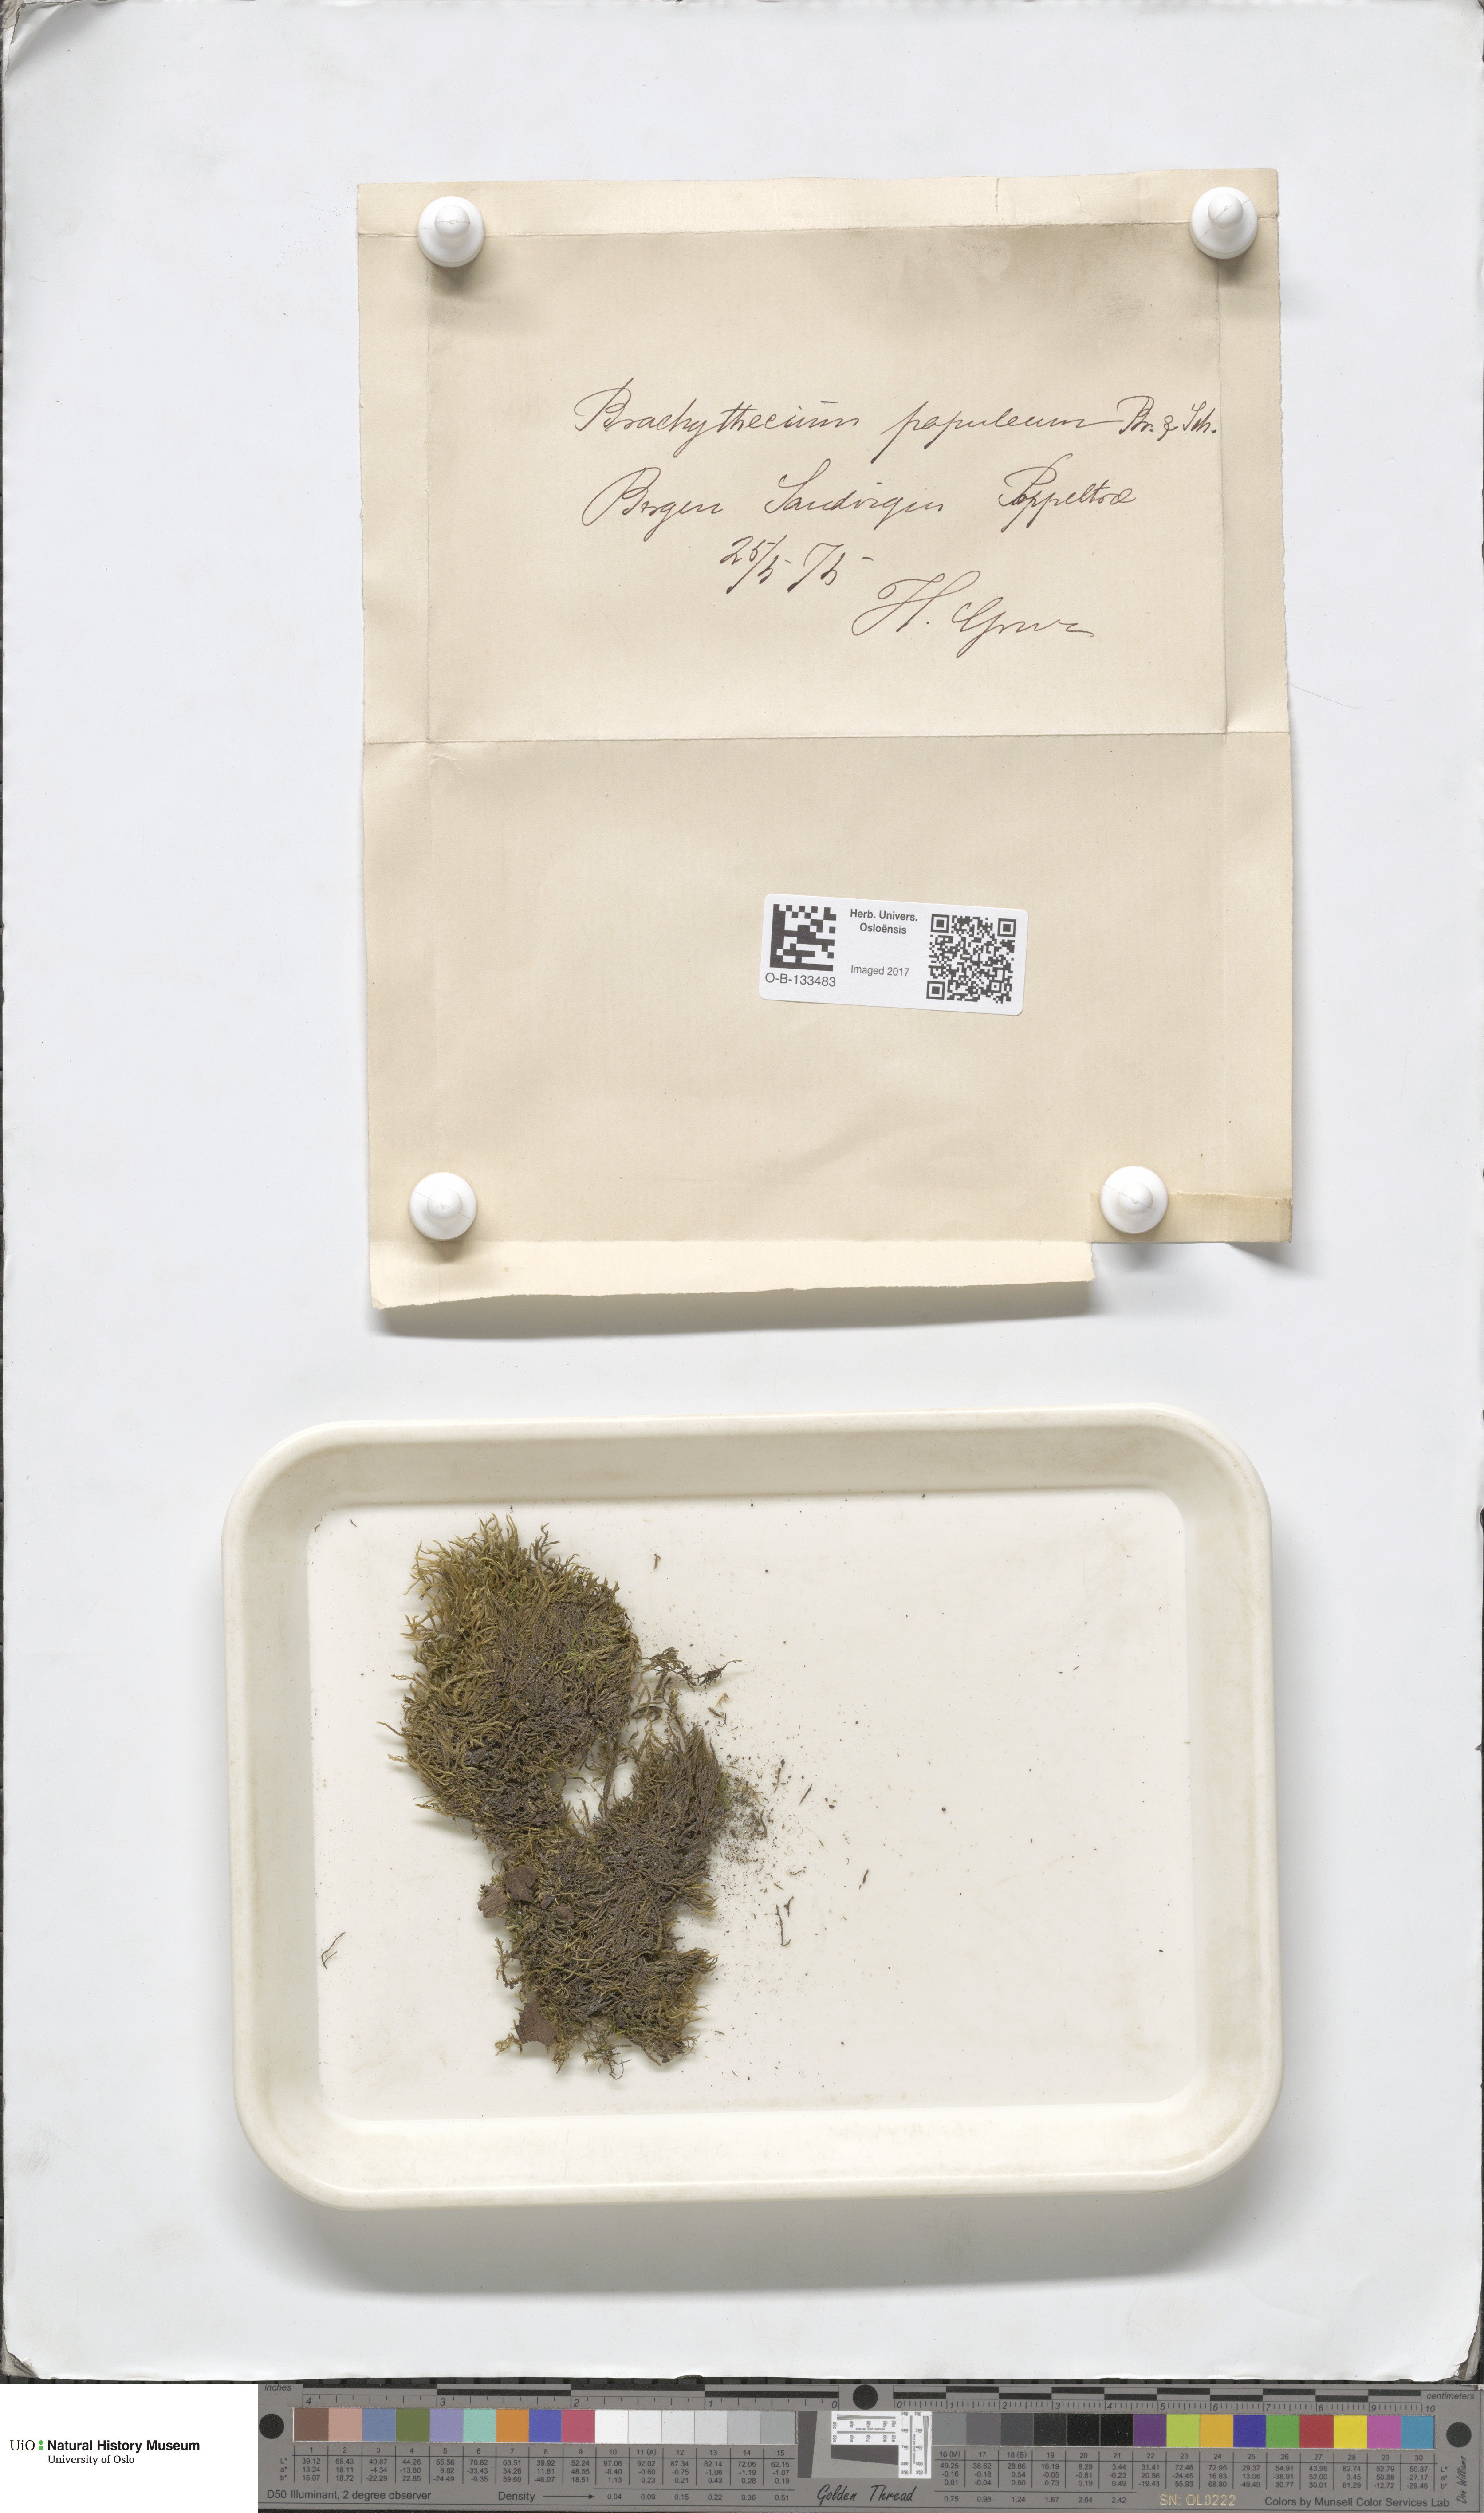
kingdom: Plantae
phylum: Bryophyta
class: Bryopsida
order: Hypnales
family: Brachytheciaceae
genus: Sciuro-hypnum
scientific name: Sciuro-hypnum plumosum
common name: Rusty feather-moss
